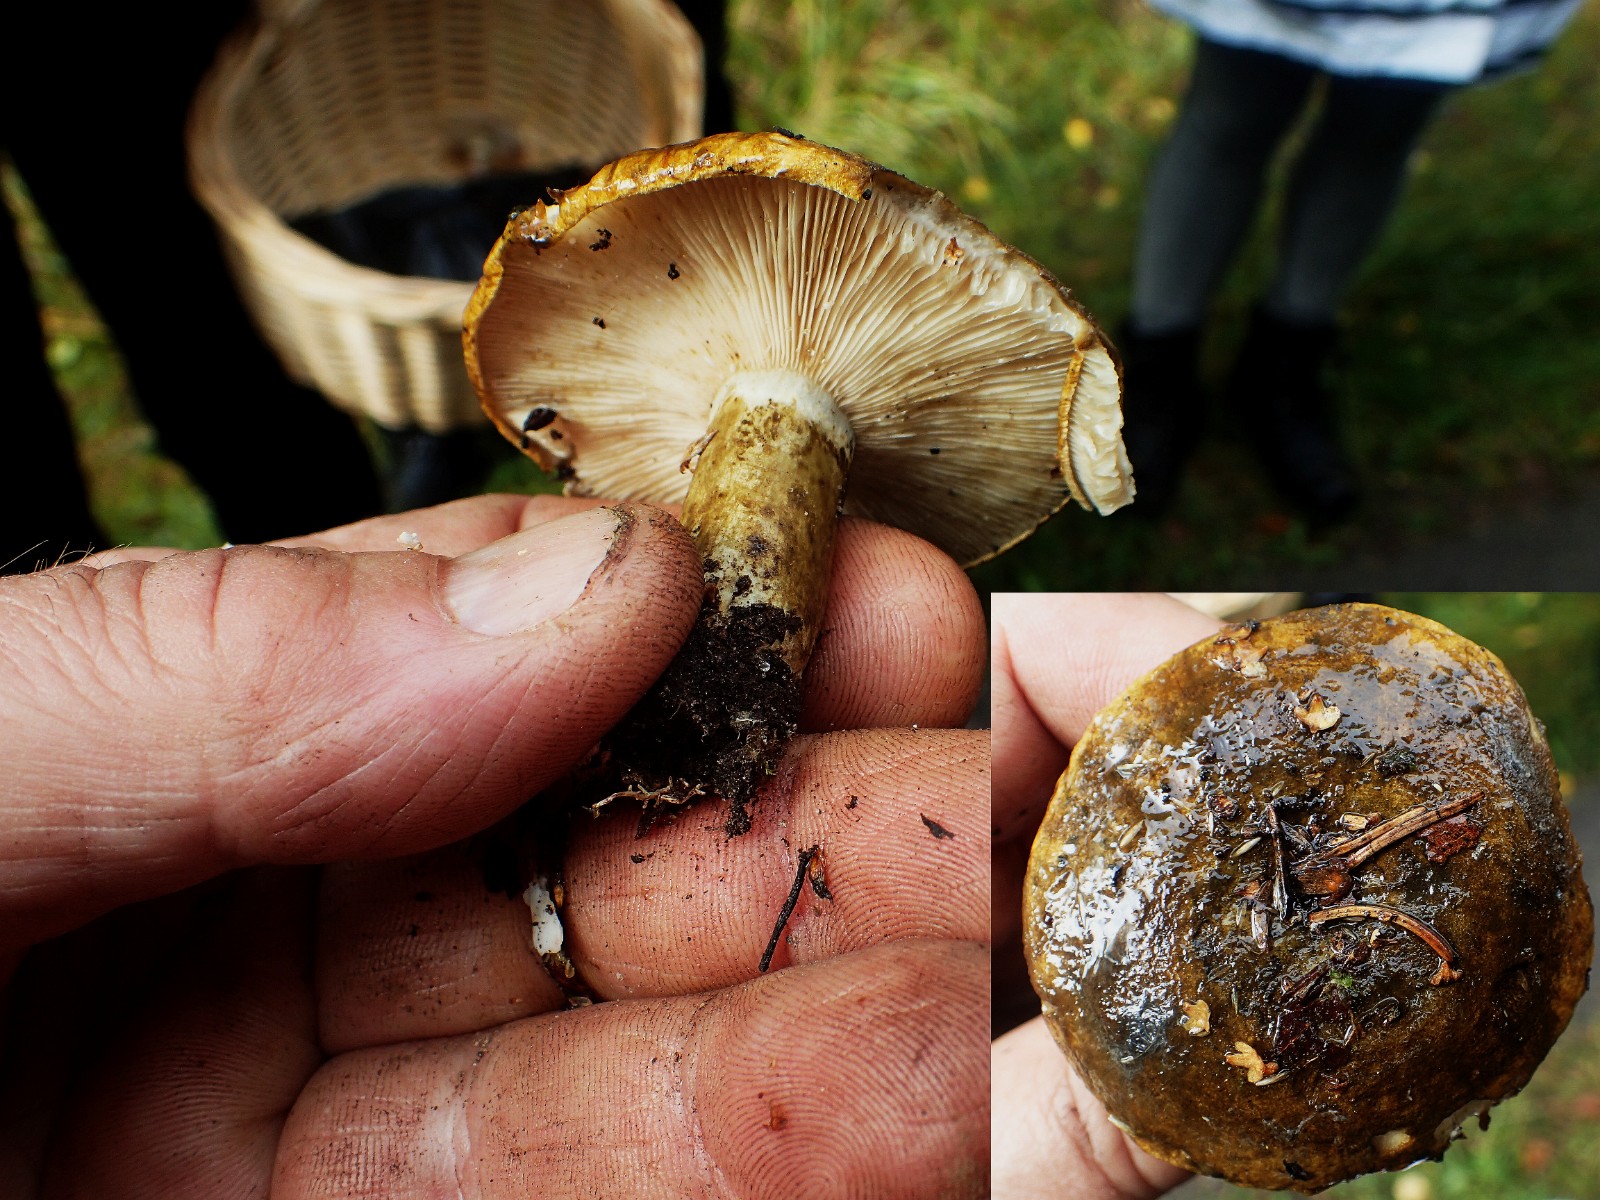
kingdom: Fungi
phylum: Basidiomycota
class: Agaricomycetes
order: Russulales
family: Russulaceae
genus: Lactarius
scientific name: Lactarius necator
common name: manddraber-mælkehat
